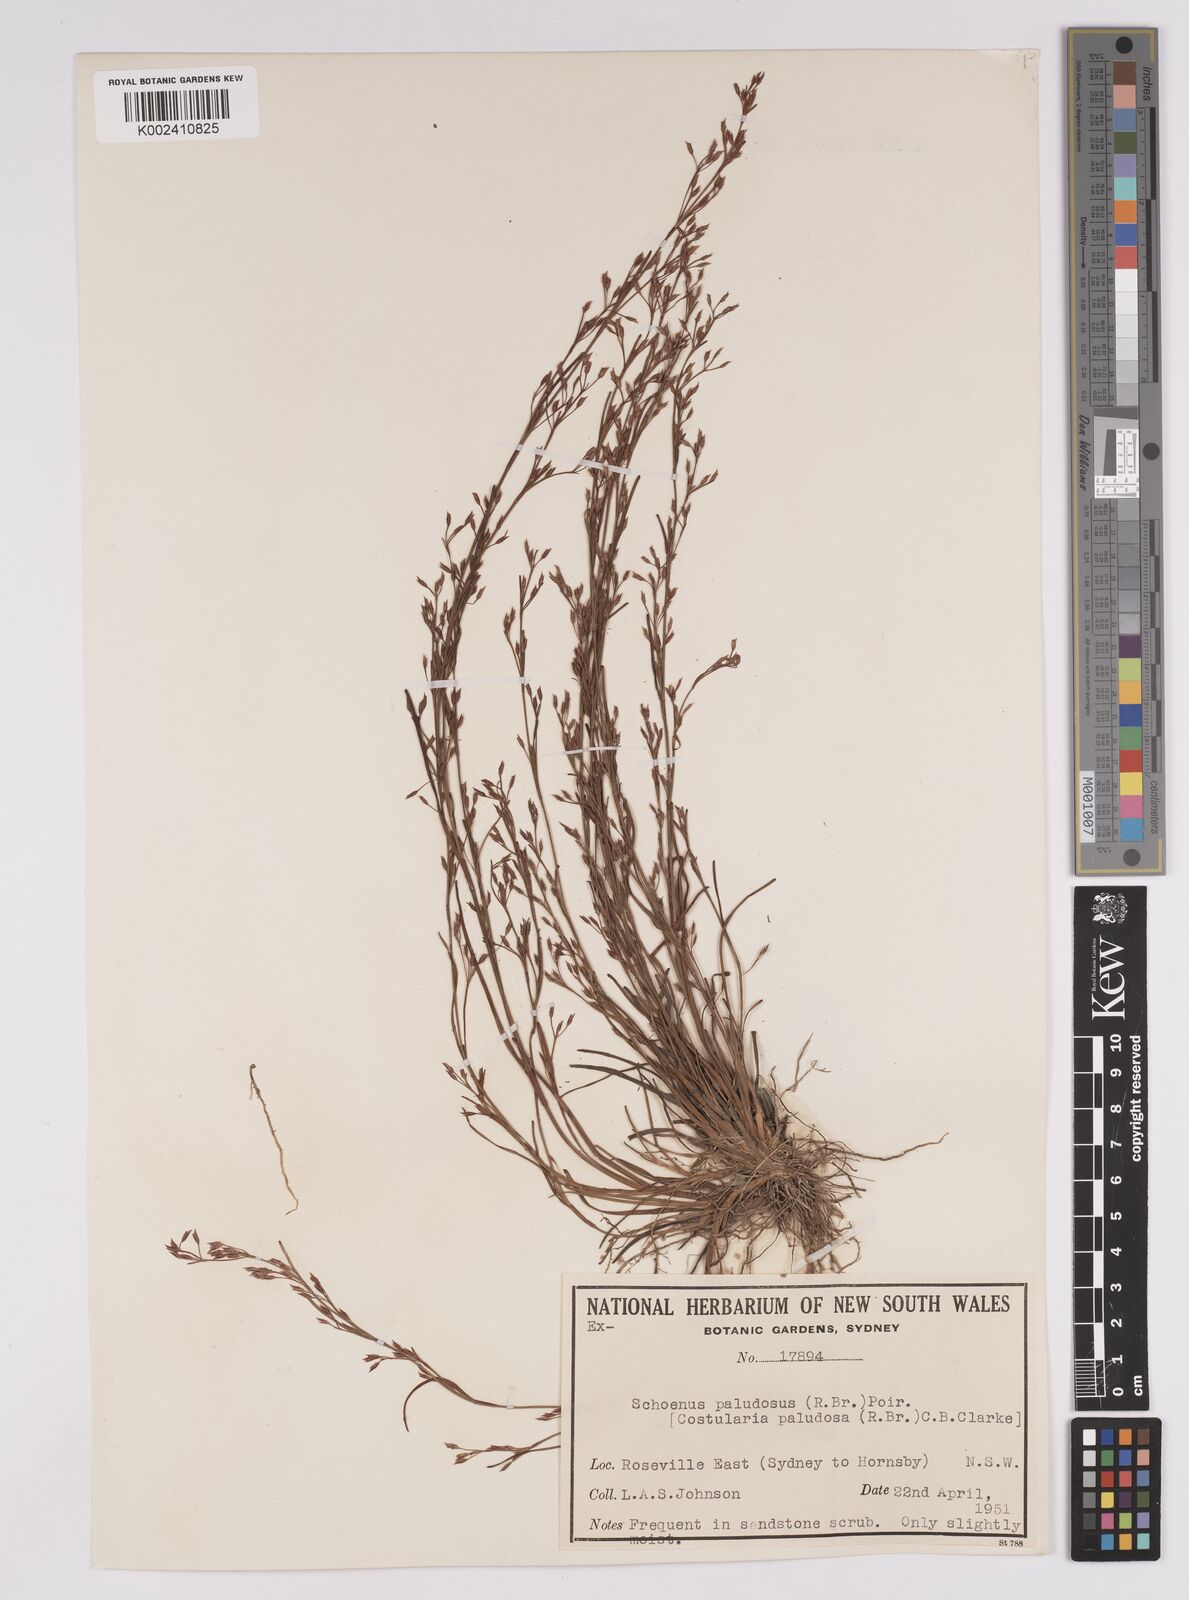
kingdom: Plantae
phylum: Tracheophyta
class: Liliopsida
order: Poales
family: Cyperaceae
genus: Anthelepis
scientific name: Anthelepis paludosa
